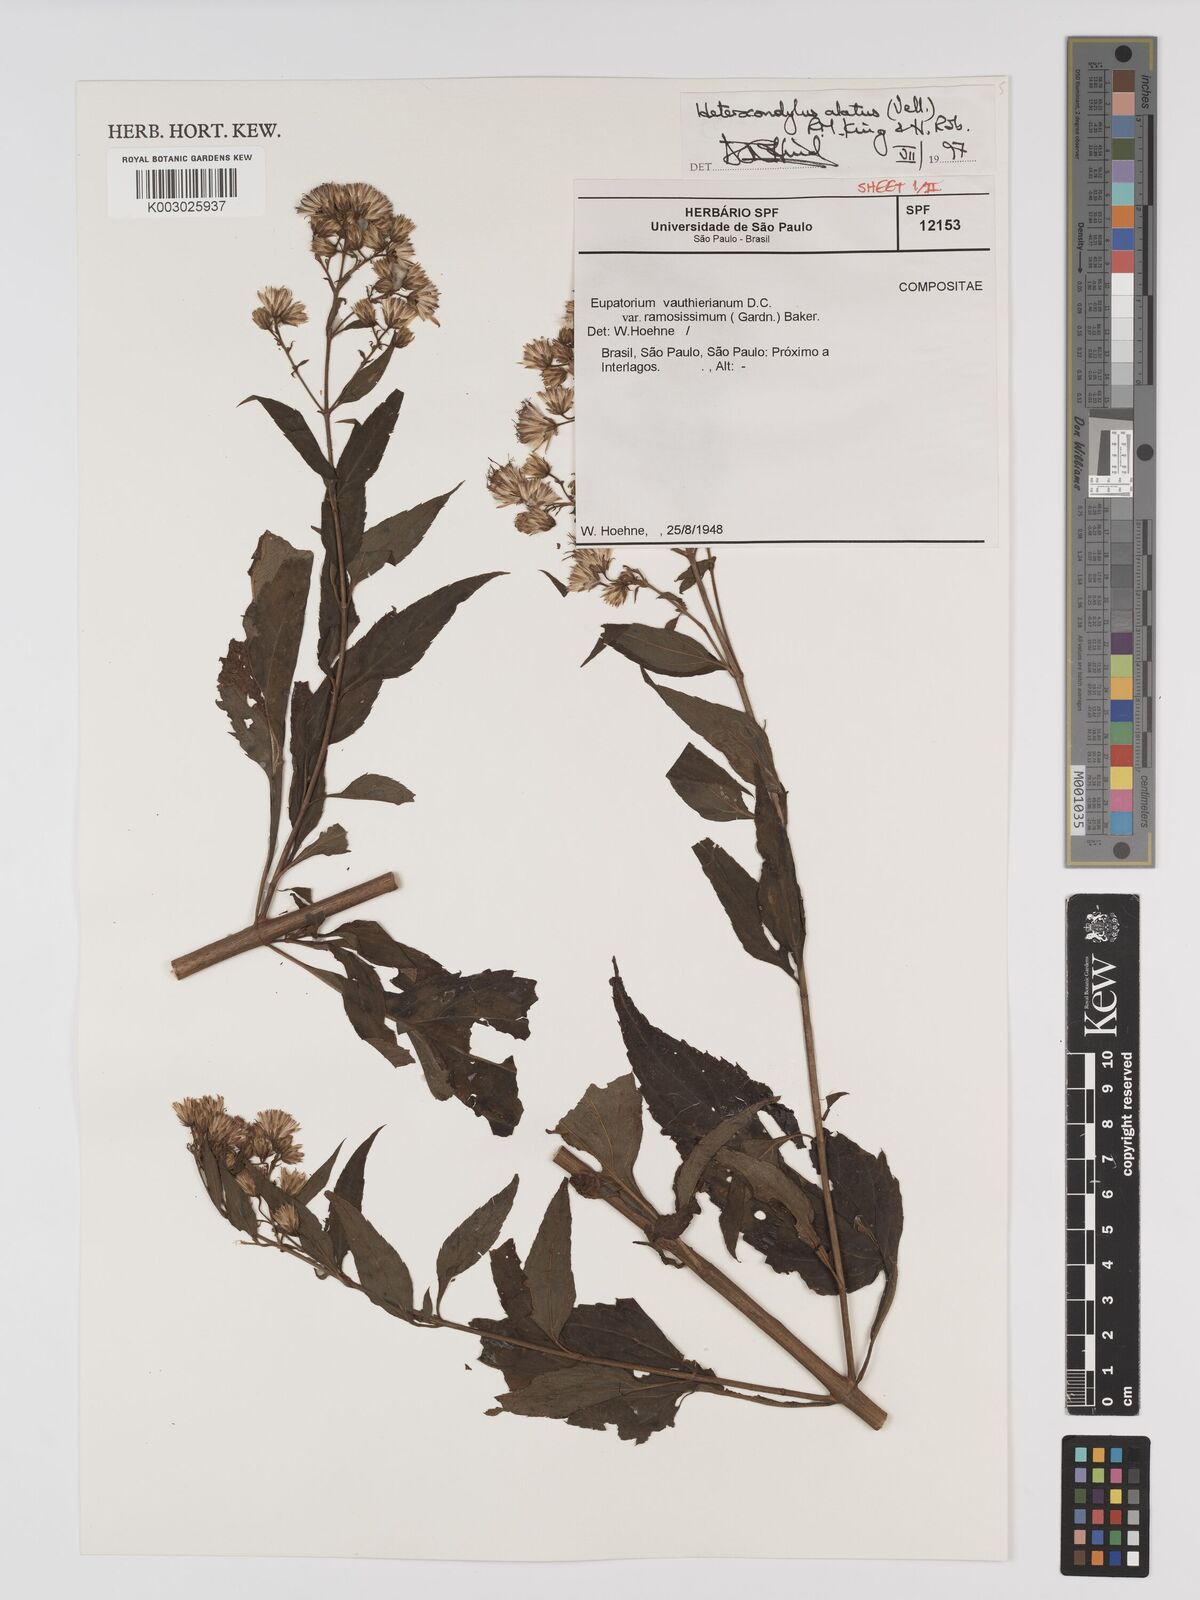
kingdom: Plantae
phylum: Tracheophyta
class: Magnoliopsida
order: Asterales
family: Asteraceae
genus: Heterocondylus
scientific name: Heterocondylus alatus
